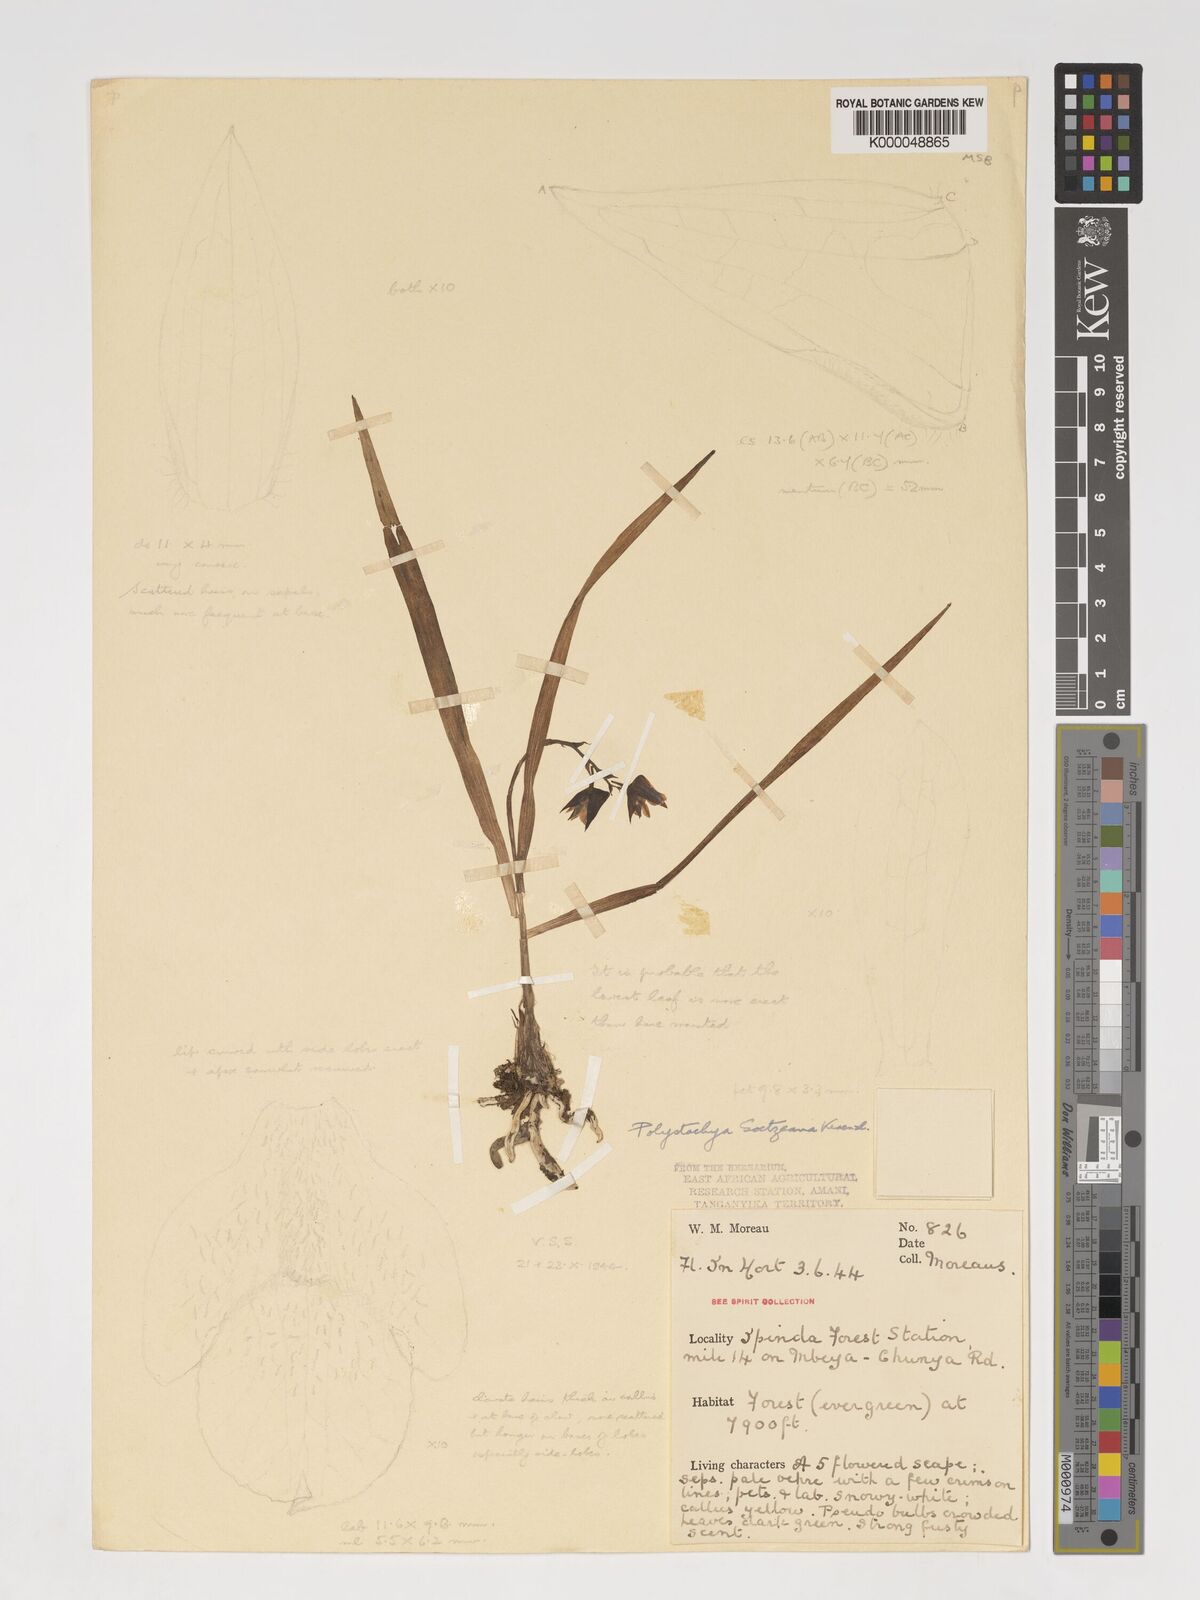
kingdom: Plantae
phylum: Tracheophyta
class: Liliopsida
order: Asparagales
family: Orchidaceae
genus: Polystachya
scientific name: Polystachya goetzeana
